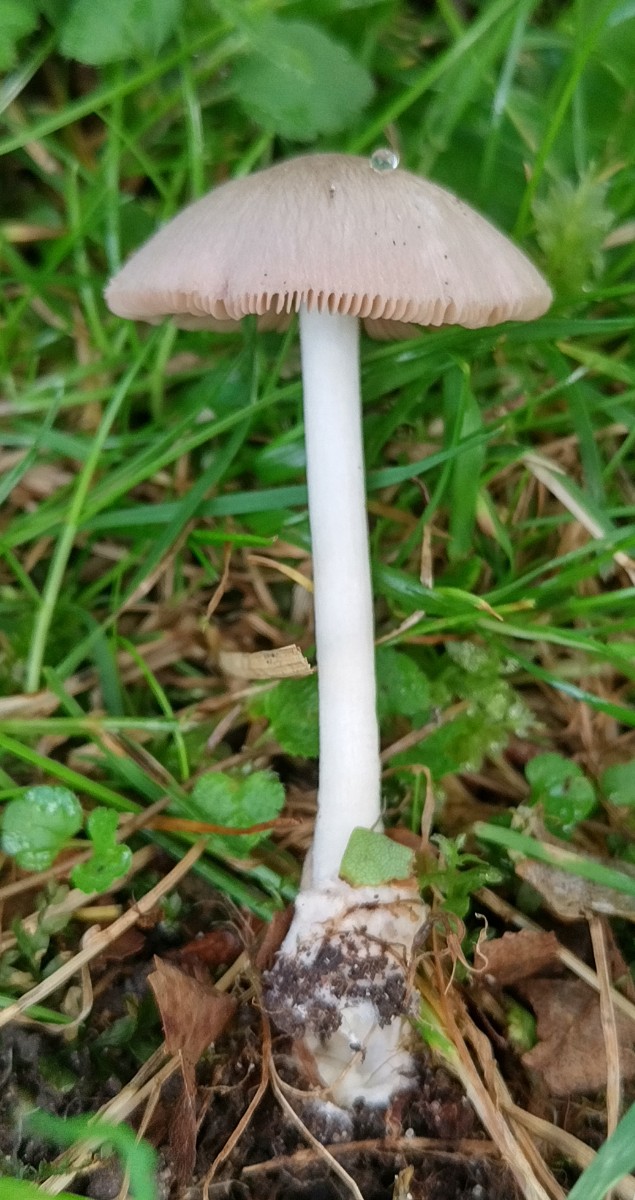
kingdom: Fungi
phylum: Basidiomycota
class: Agaricomycetes
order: Agaricales
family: Pluteaceae
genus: Volvariella
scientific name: Volvariella murinella
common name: musegrå posesvamp
